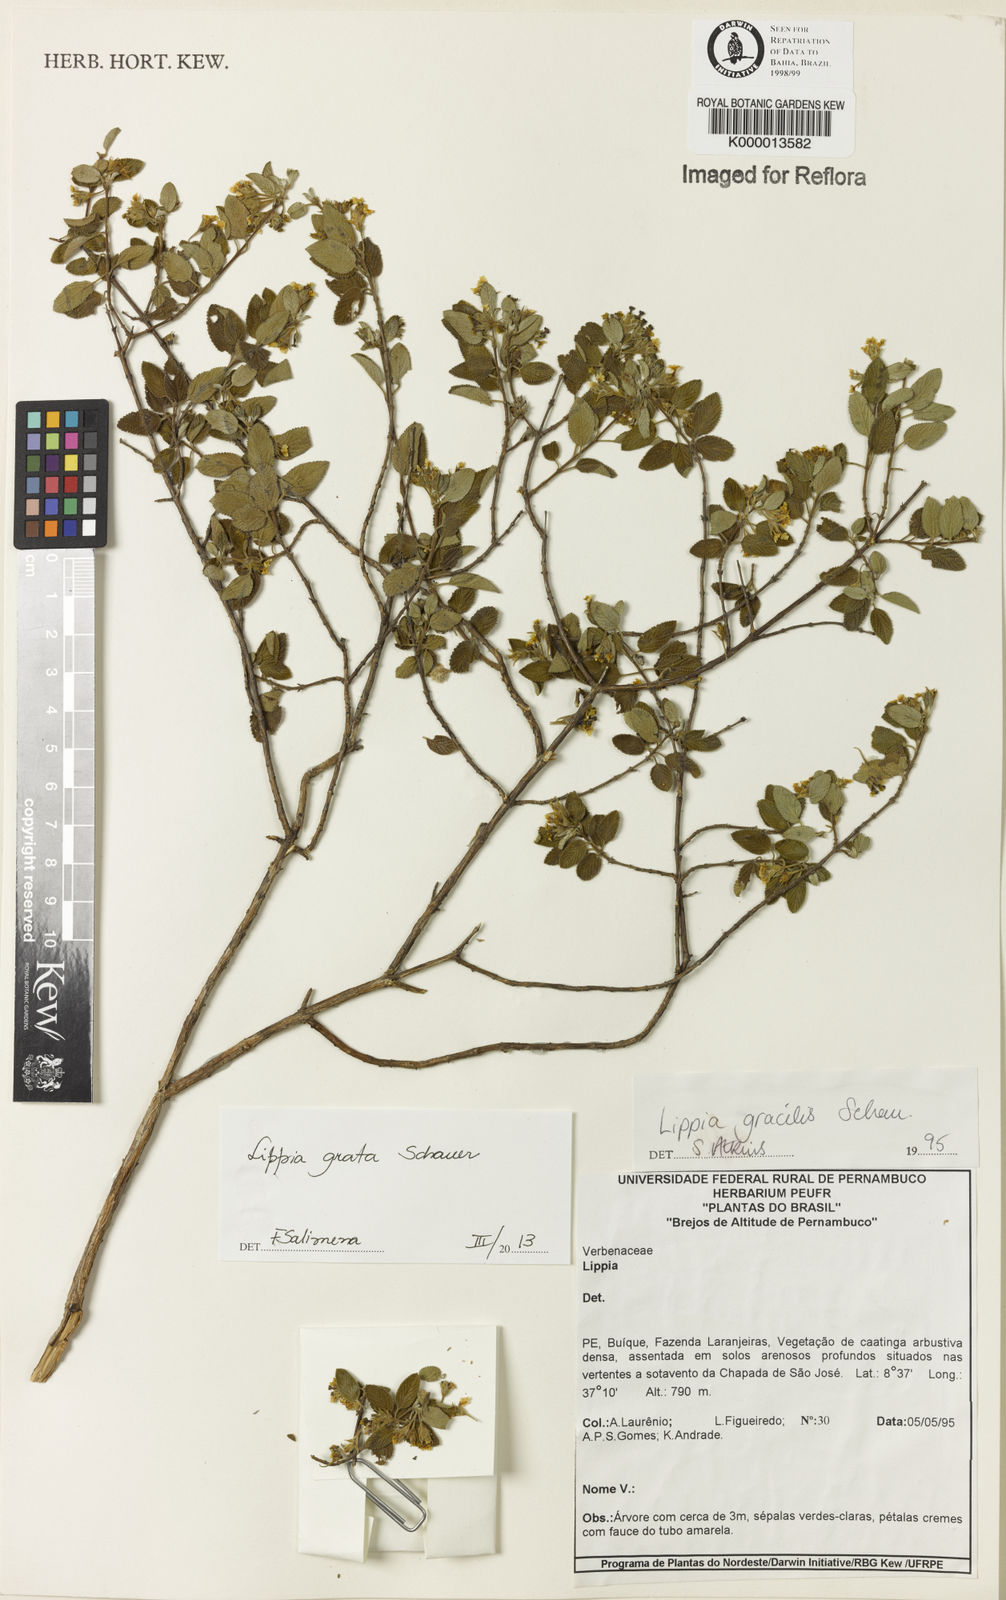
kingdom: Plantae
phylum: Tracheophyta
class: Magnoliopsida
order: Lamiales
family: Verbenaceae
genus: Lippia
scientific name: Lippia
